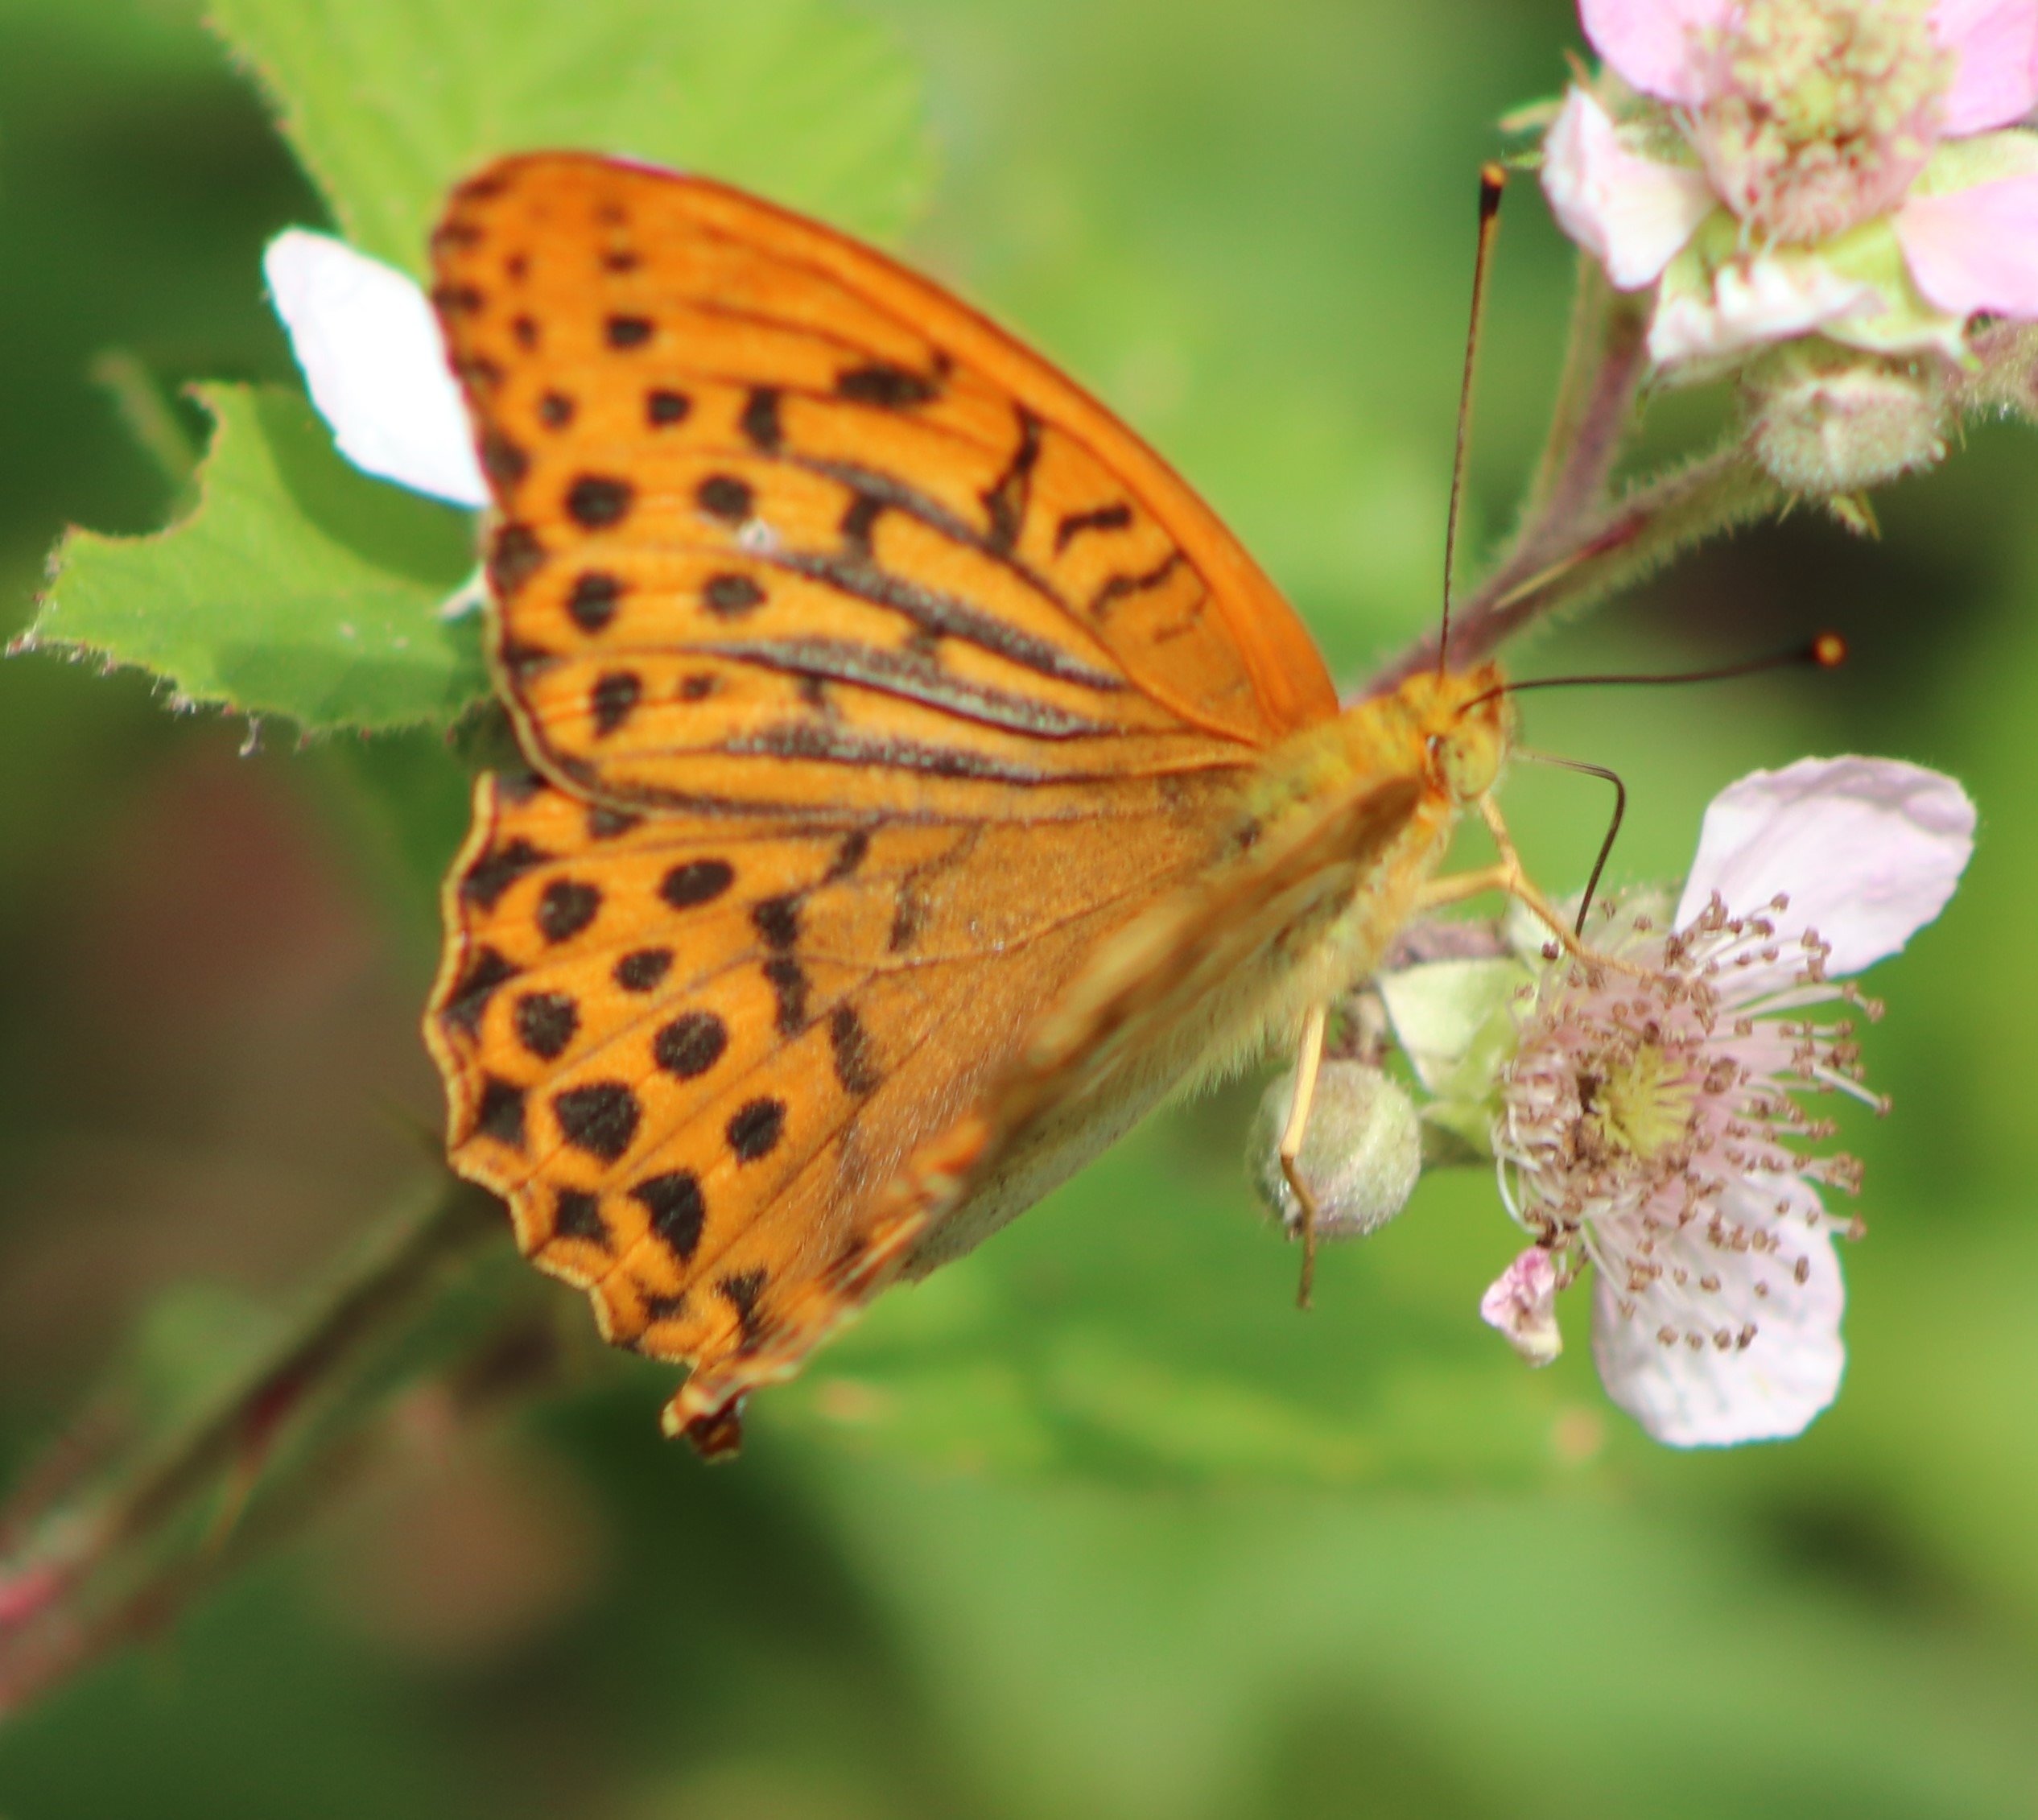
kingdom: Animalia
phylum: Arthropoda
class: Insecta
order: Lepidoptera
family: Nymphalidae
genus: Argynnis
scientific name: Argynnis paphia
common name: Kejserkåbe
